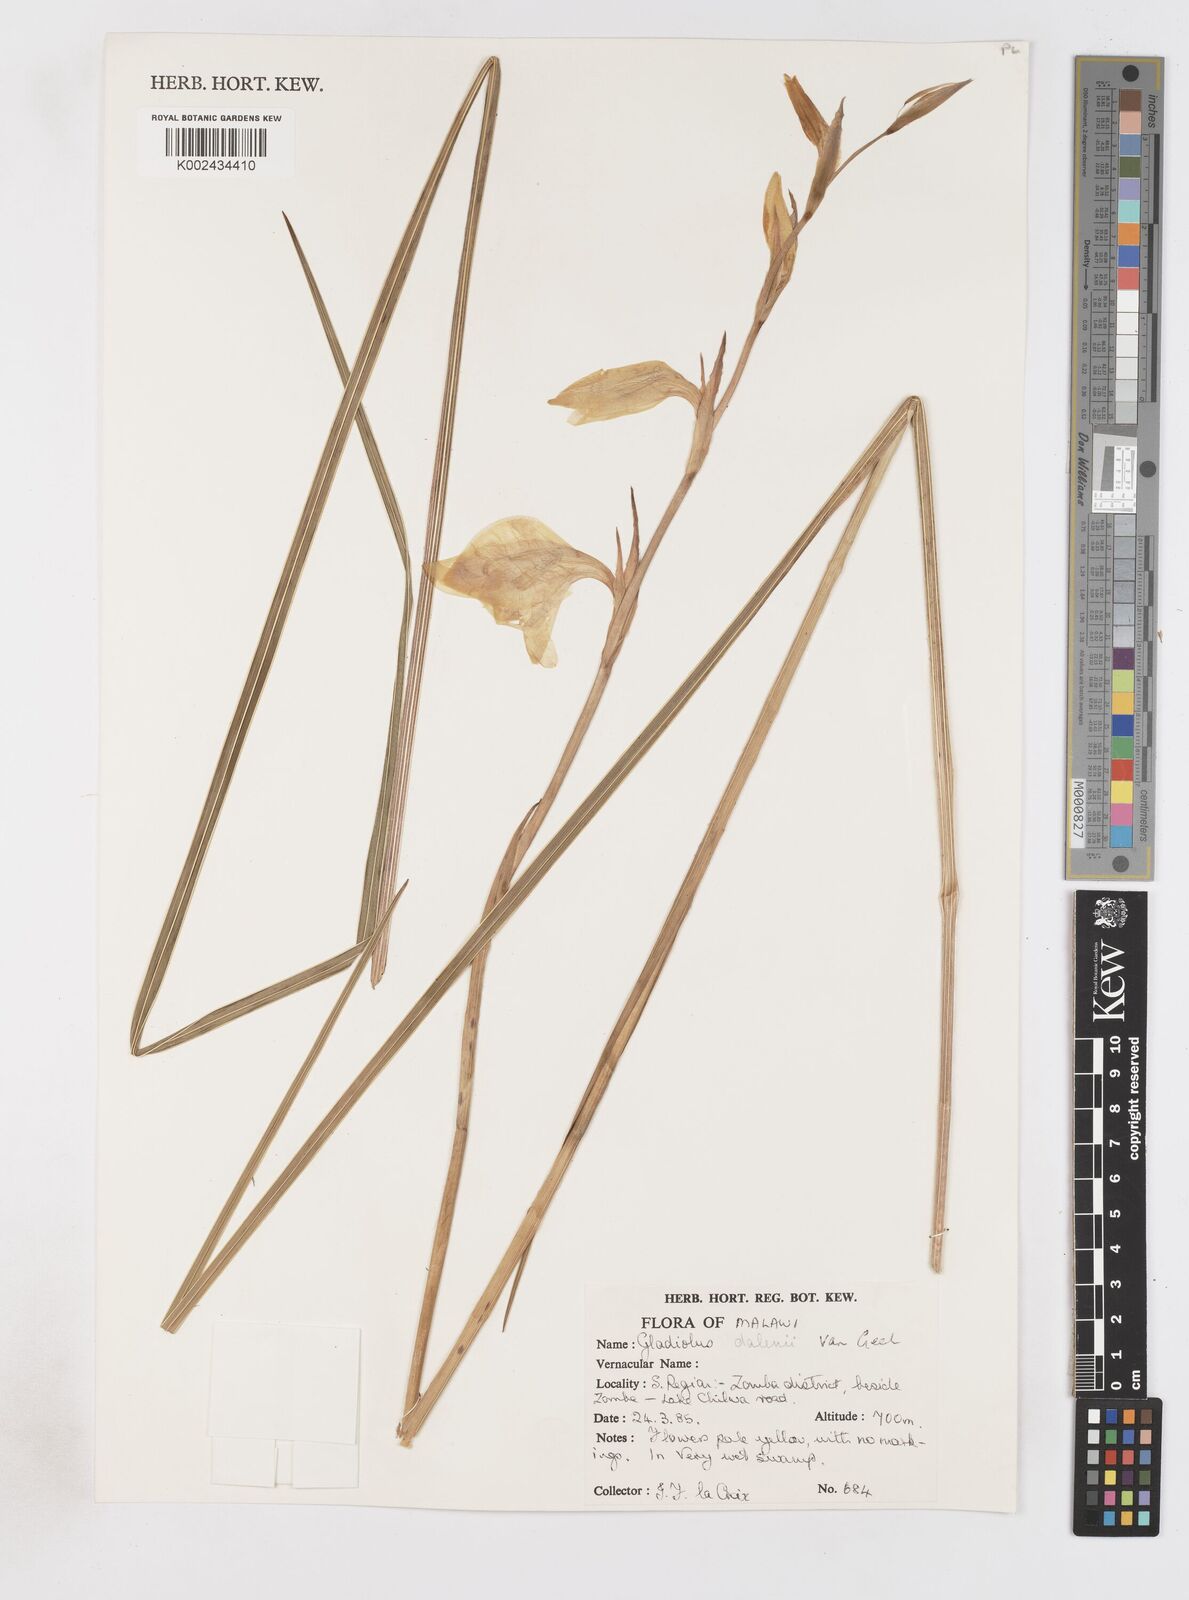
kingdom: Plantae
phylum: Tracheophyta
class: Liliopsida
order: Asparagales
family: Iridaceae
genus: Gladiolus
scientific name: Gladiolus dalenii
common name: Cornflag
